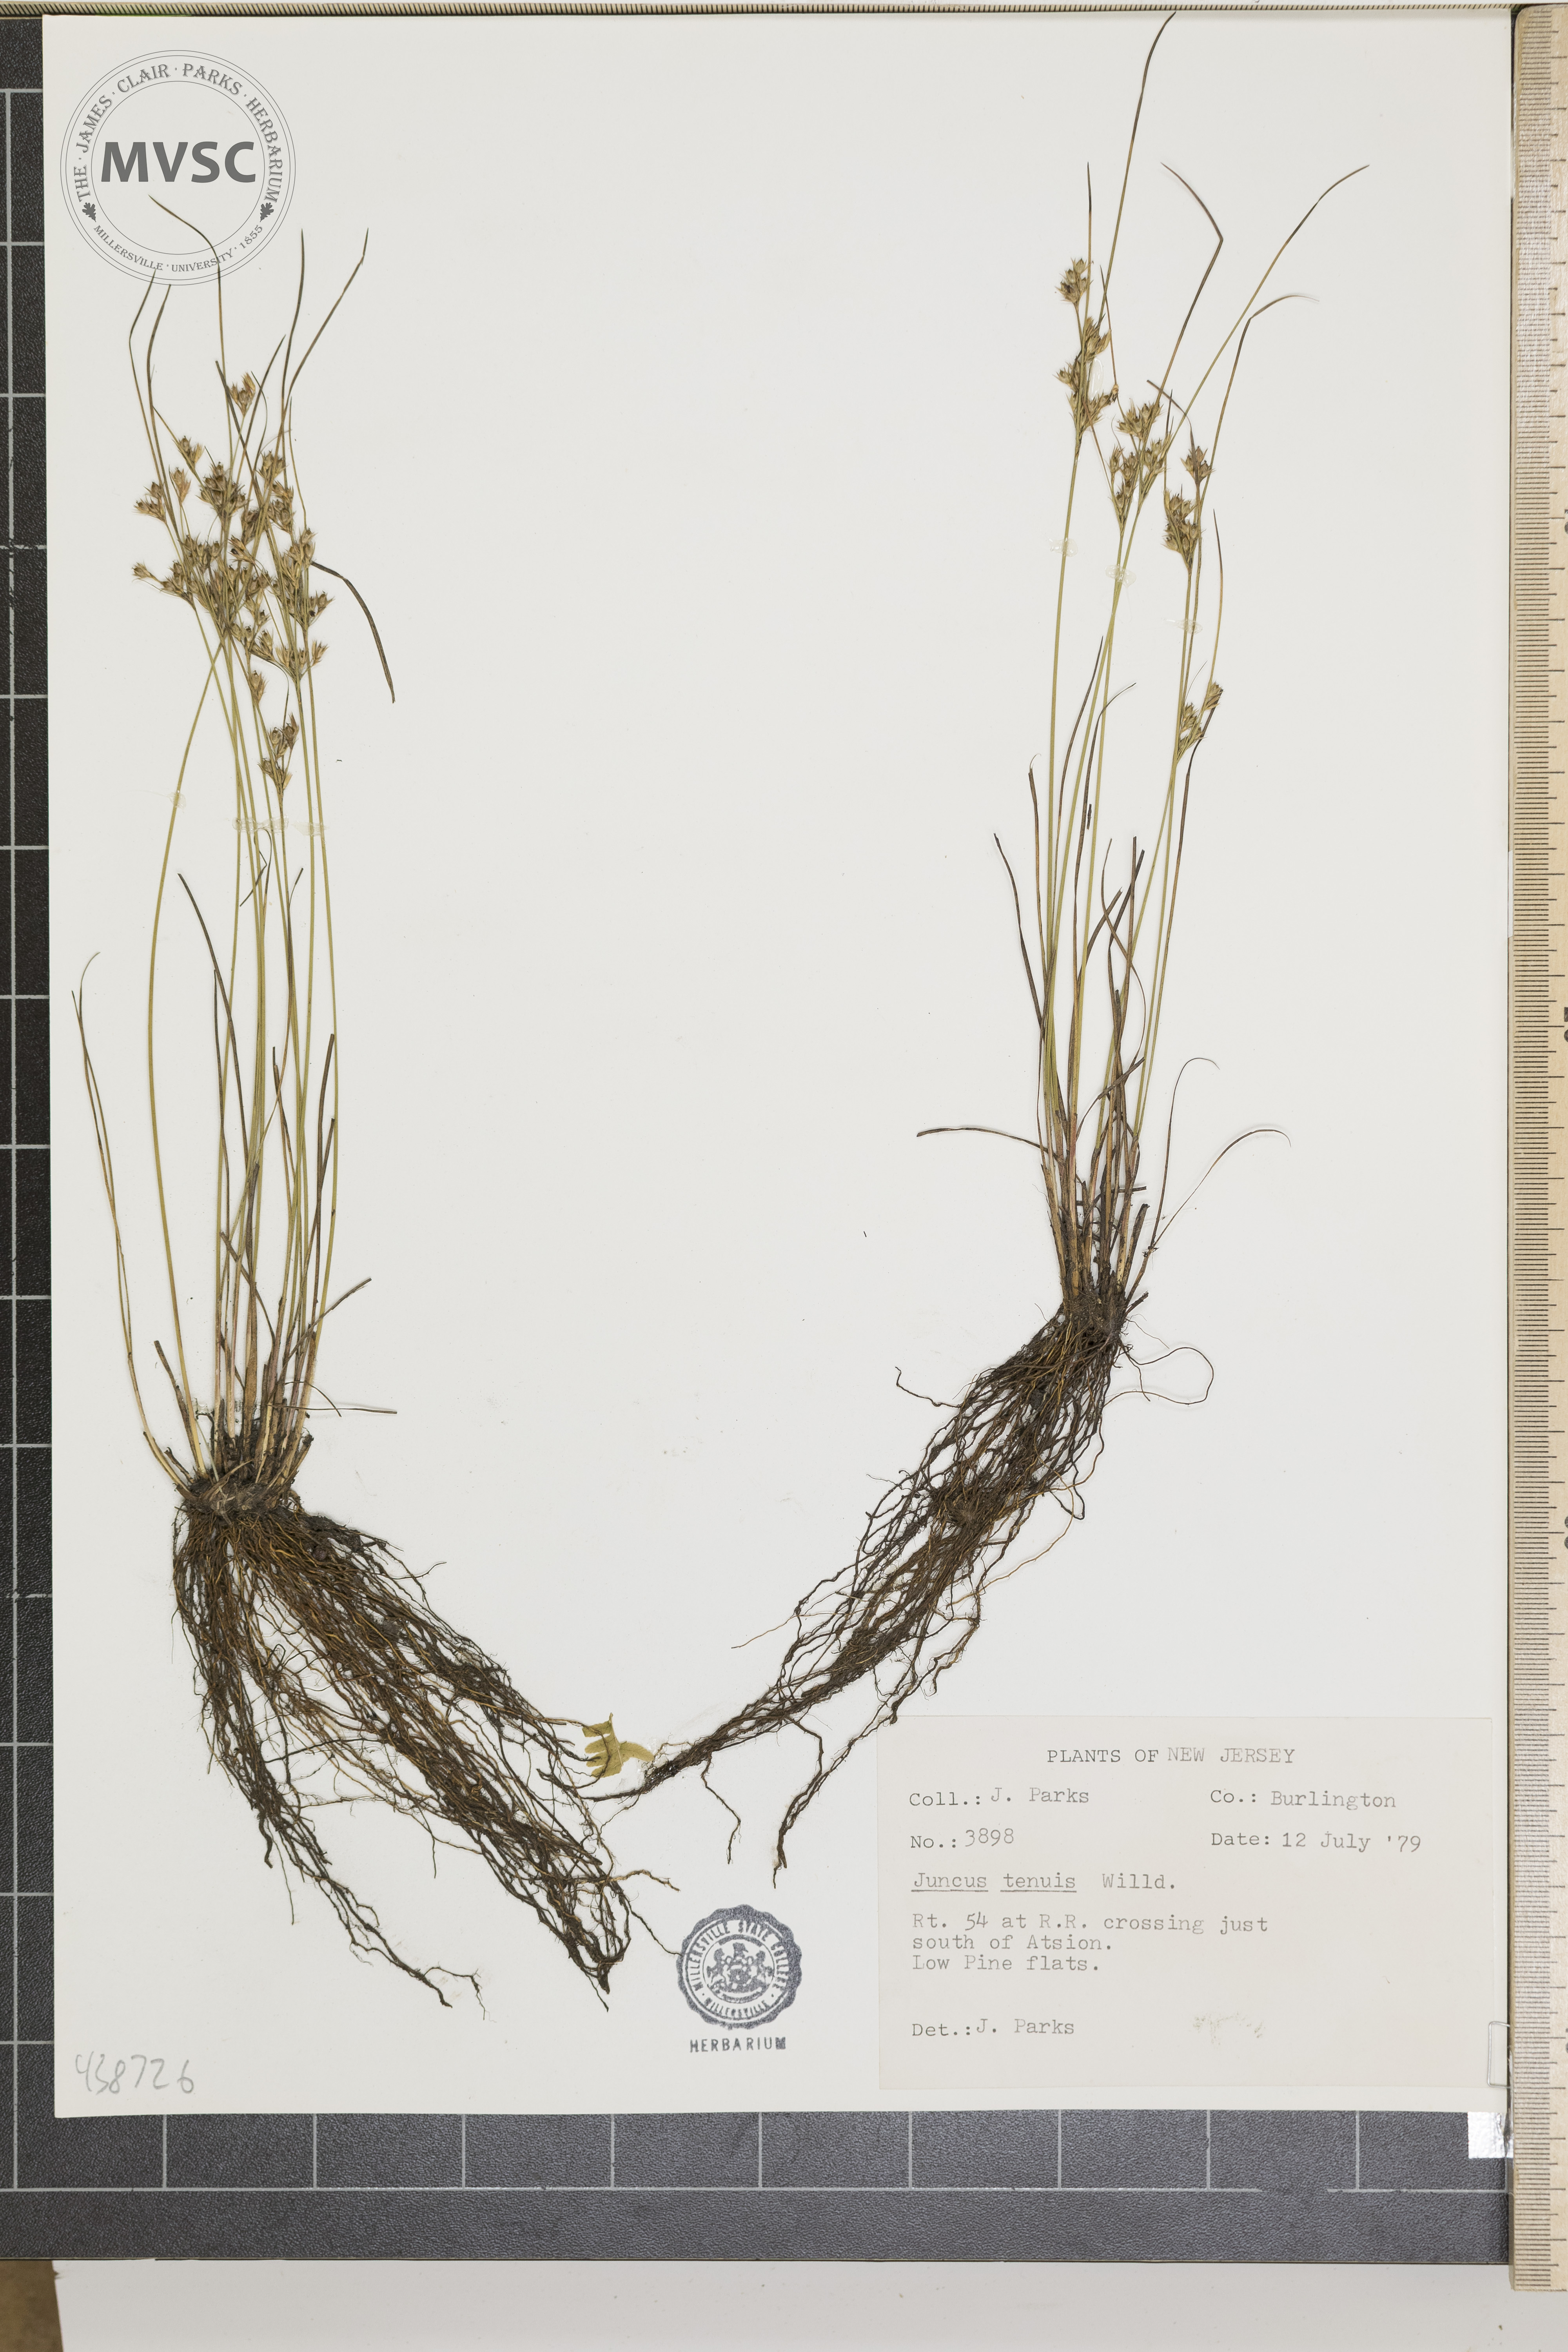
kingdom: Plantae
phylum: Tracheophyta
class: Liliopsida
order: Poales
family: Juncaceae
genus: Juncus
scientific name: Juncus tenuis
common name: Slender rush
